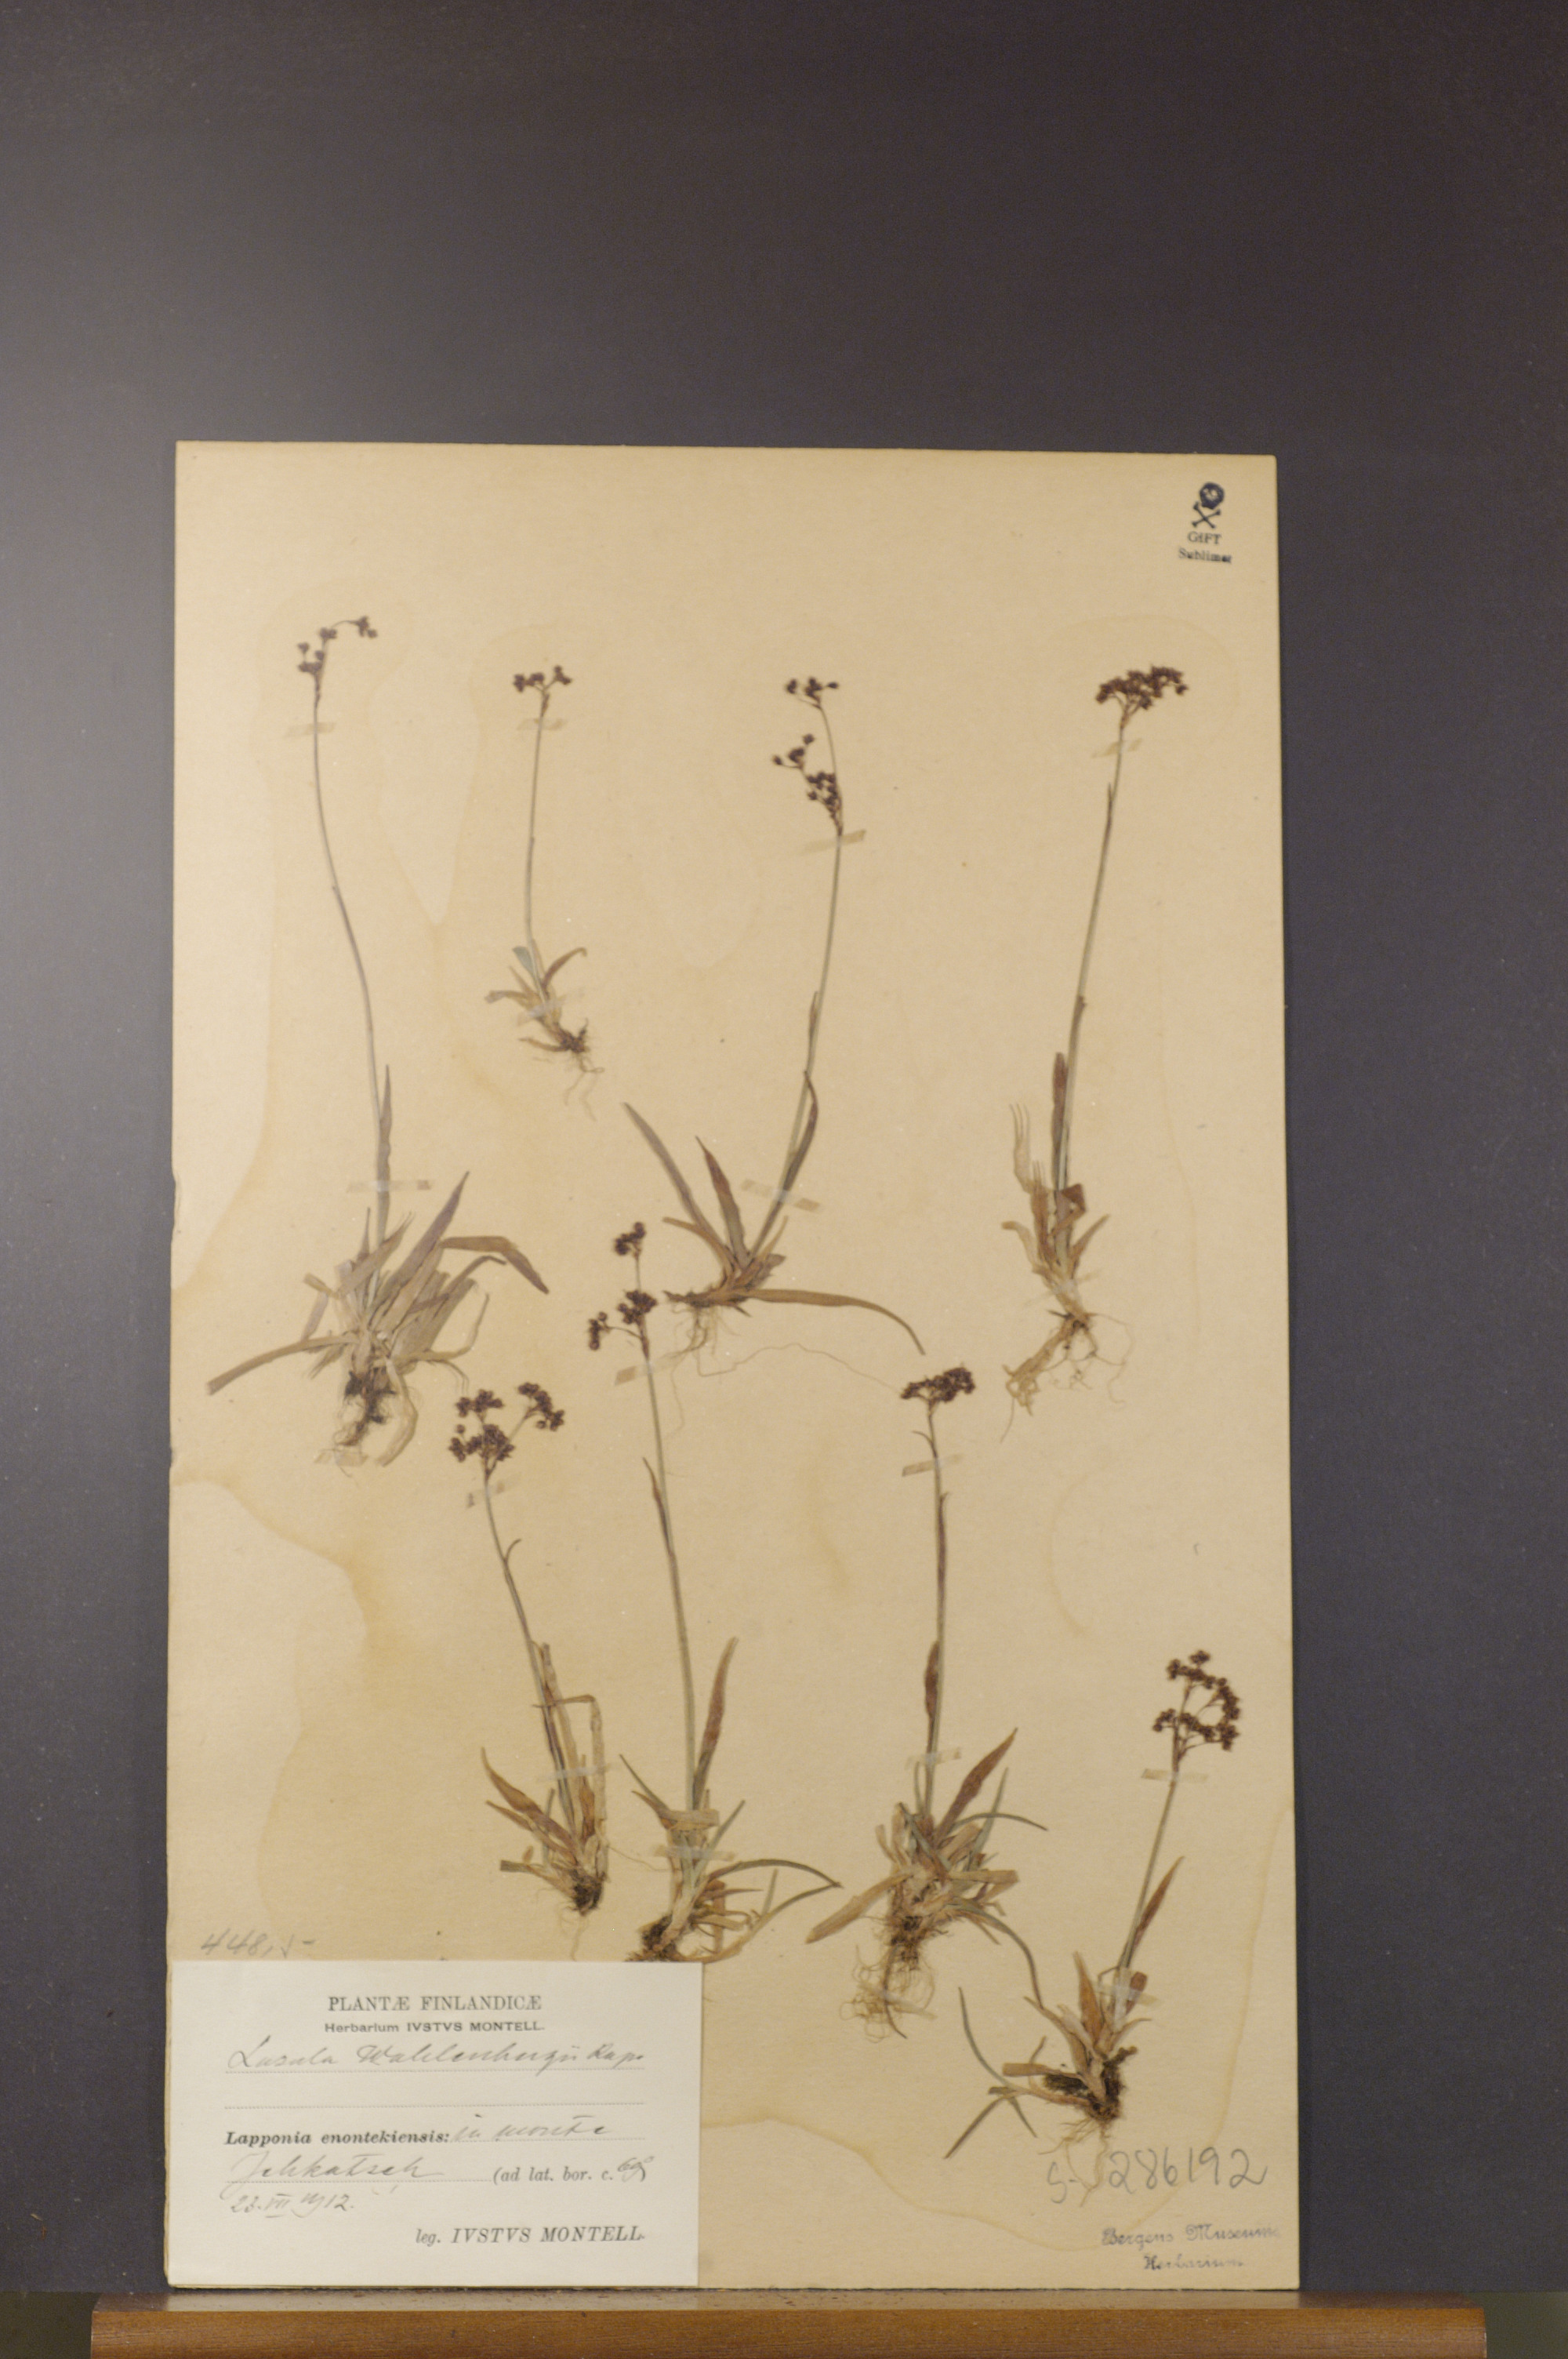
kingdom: Plantae
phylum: Tracheophyta
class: Liliopsida
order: Poales
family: Juncaceae
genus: Luzula
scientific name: Luzula wahlenbergii
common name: Wahlenberg's wood-rush
